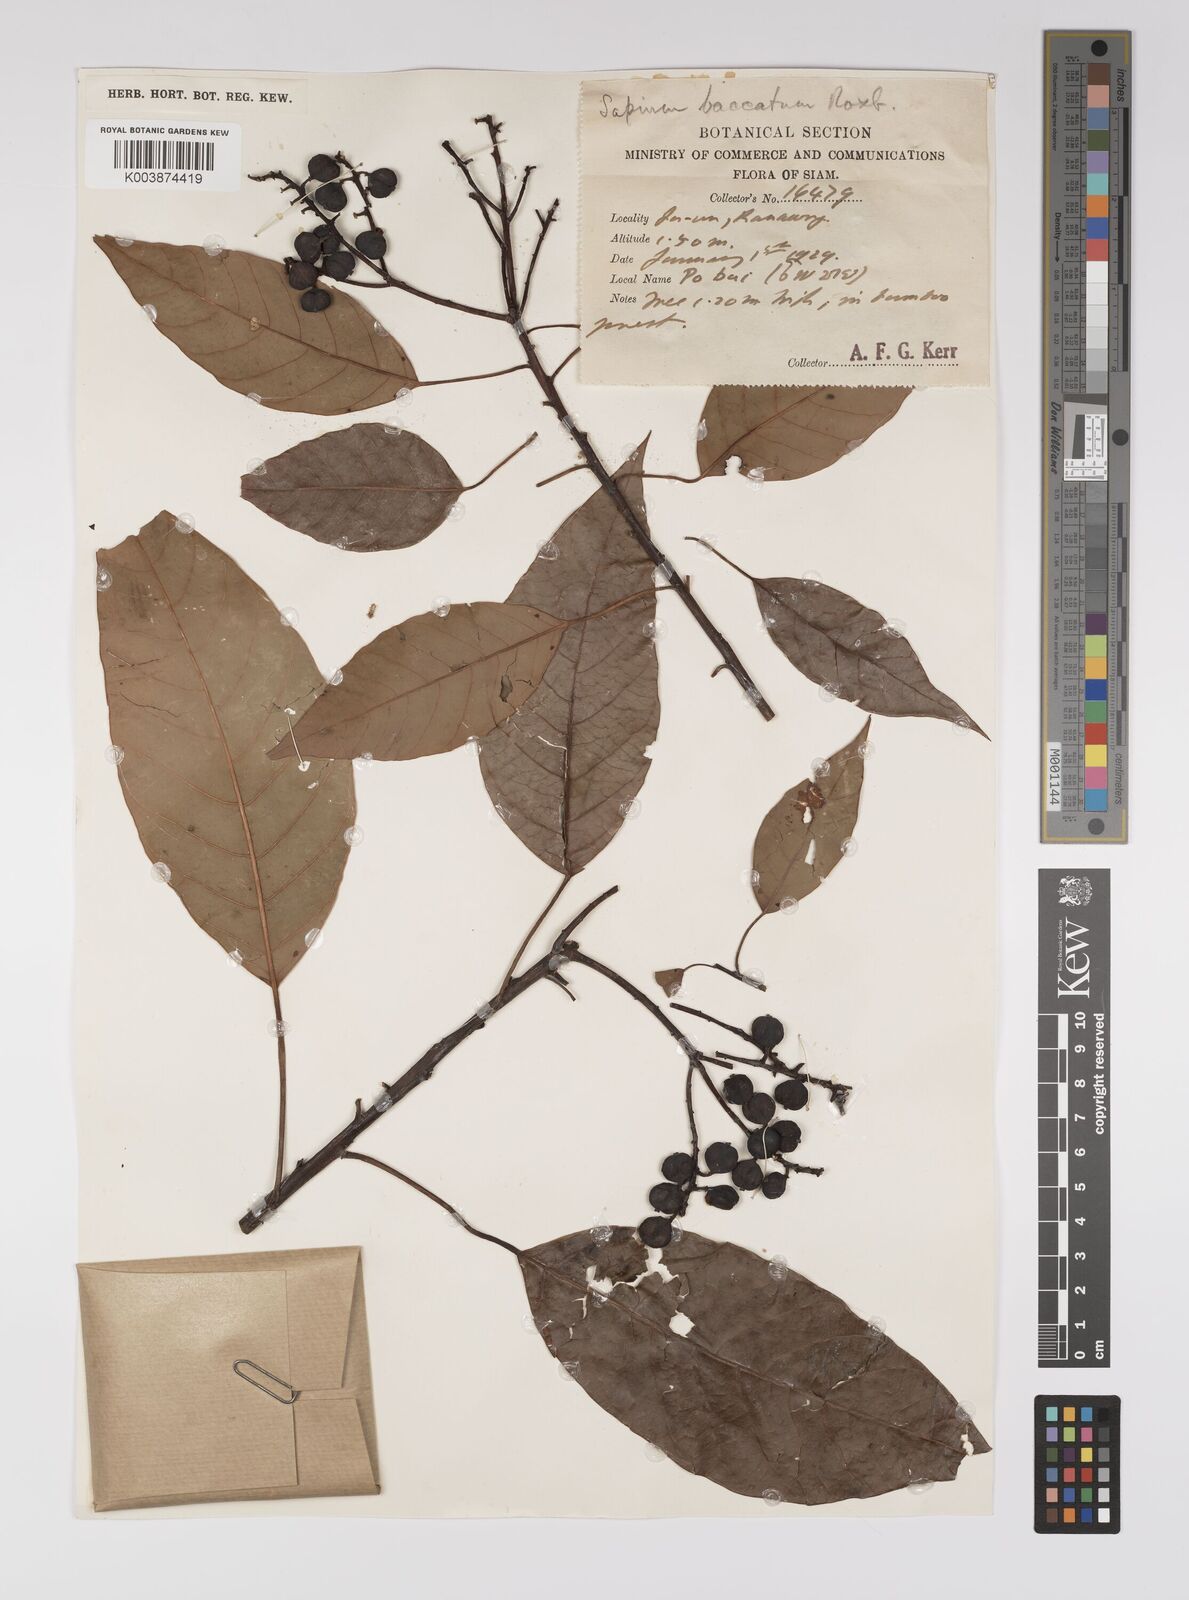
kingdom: Plantae
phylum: Tracheophyta
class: Magnoliopsida
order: Malpighiales
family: Euphorbiaceae
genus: Balakata
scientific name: Balakata baccata
